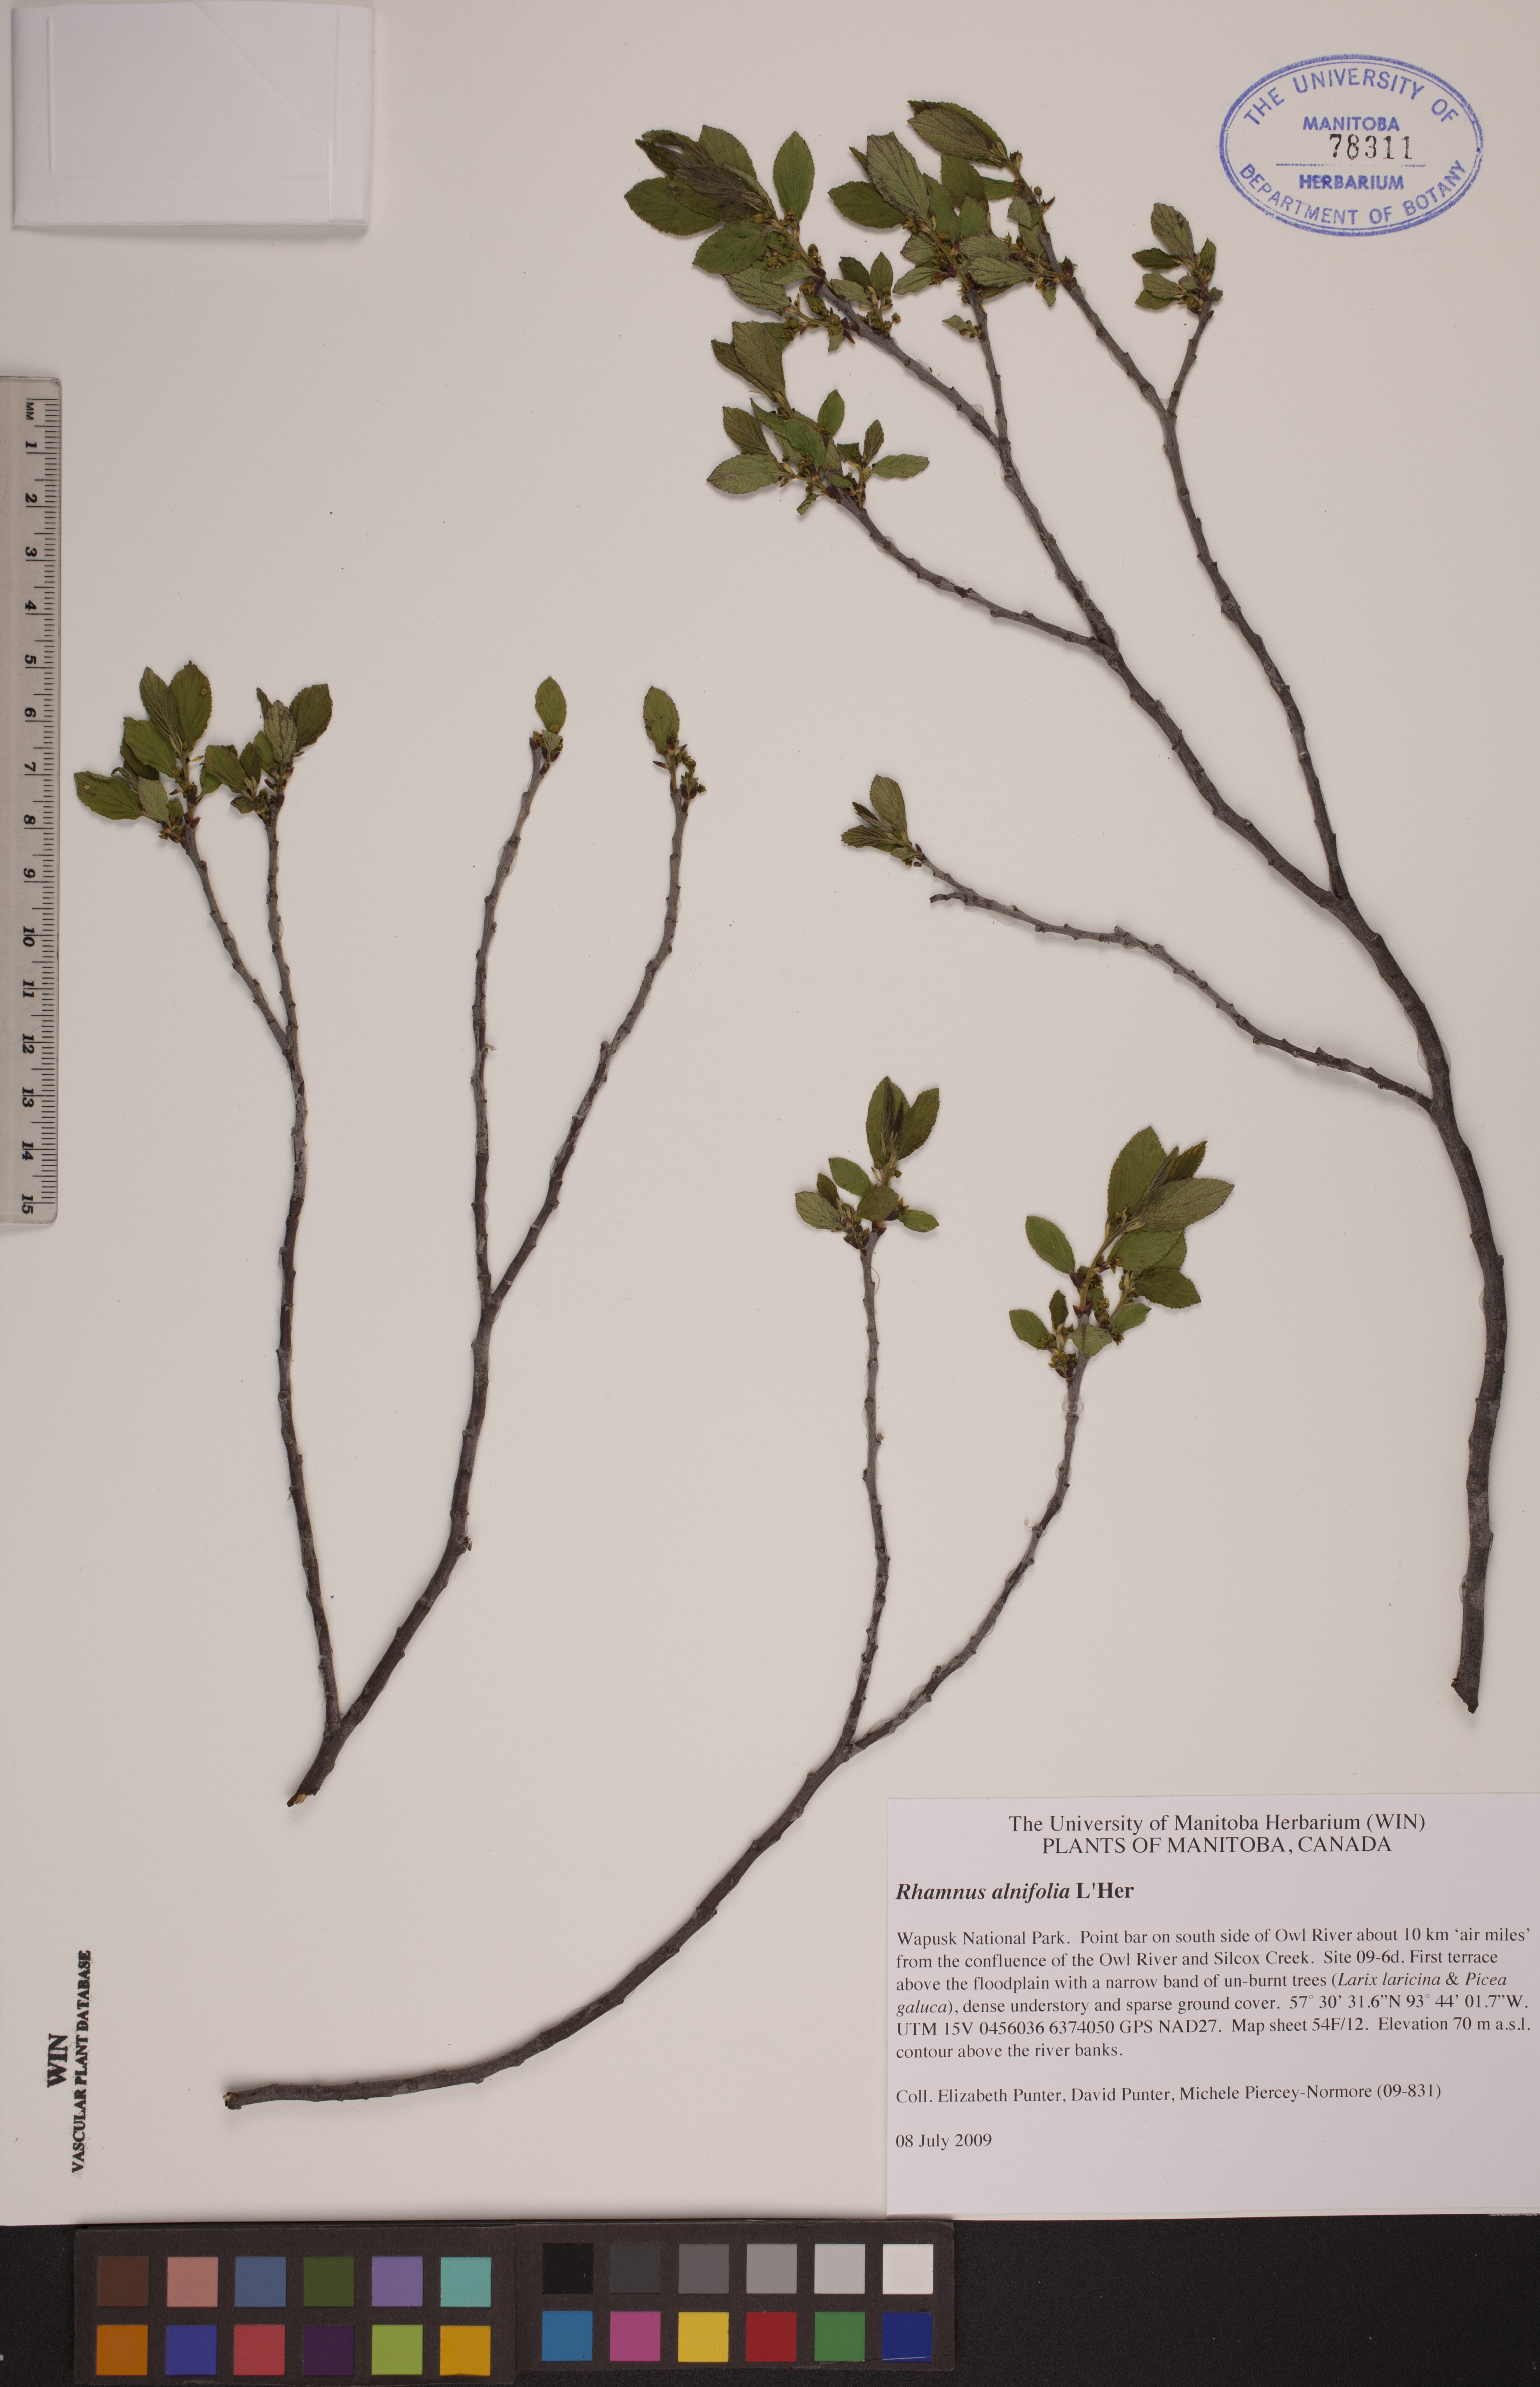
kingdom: Plantae
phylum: Tracheophyta
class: Magnoliopsida
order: Rosales
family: Rhamnaceae
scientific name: Rhamnaceae
